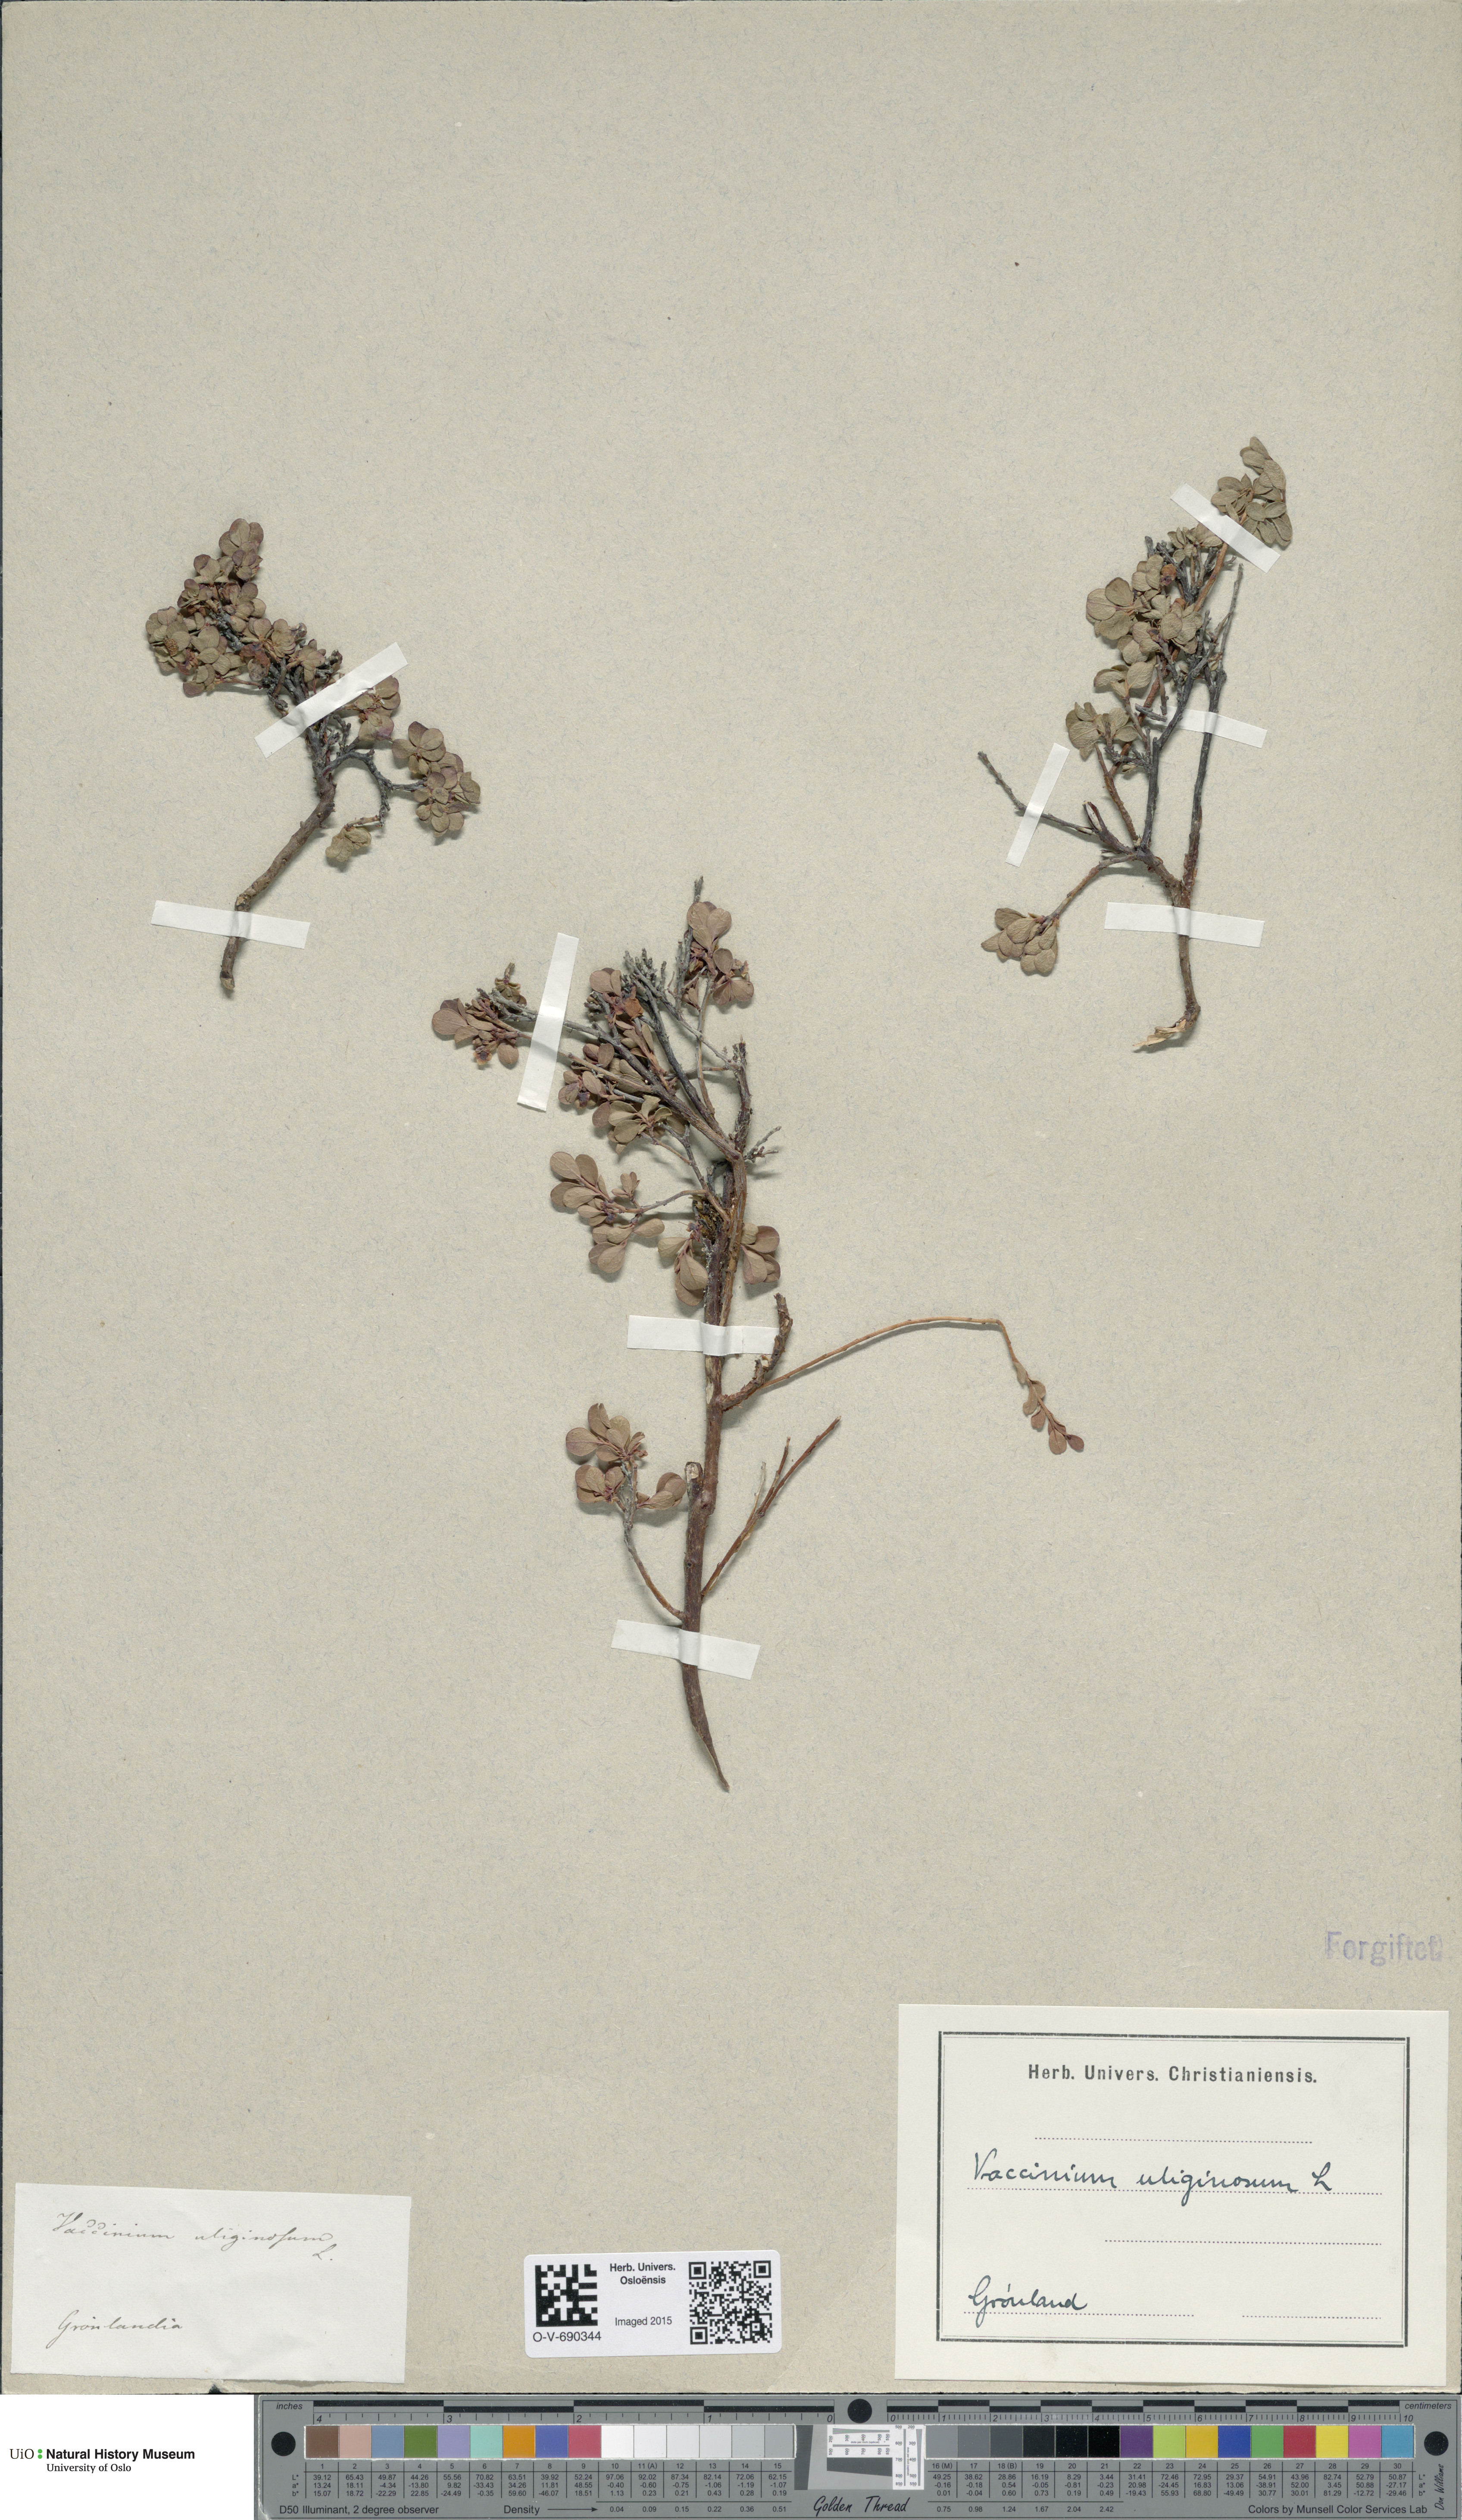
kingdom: Plantae
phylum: Tracheophyta
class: Magnoliopsida
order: Ericales
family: Ericaceae
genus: Vaccinium
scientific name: Vaccinium uliginosum
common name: Bog bilberry
